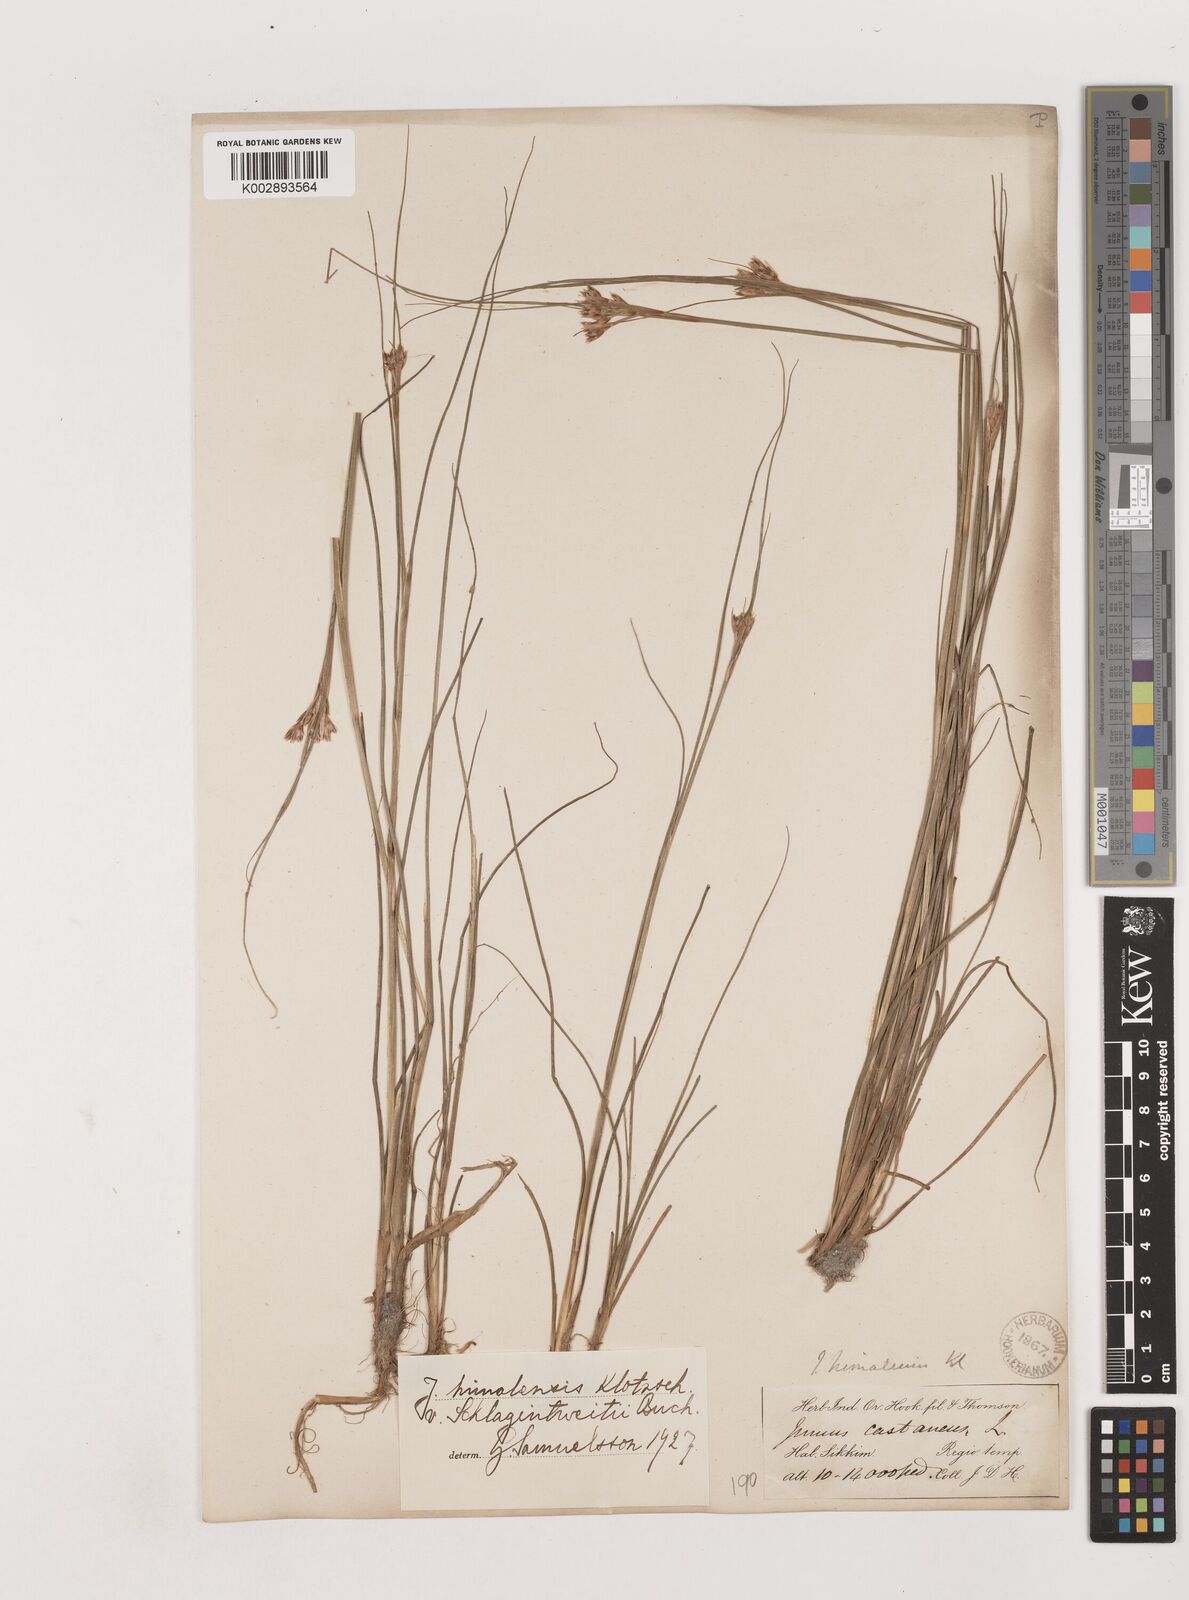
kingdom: Plantae
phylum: Tracheophyta
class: Liliopsida
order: Poales
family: Juncaceae
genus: Juncus
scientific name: Juncus himalensis
